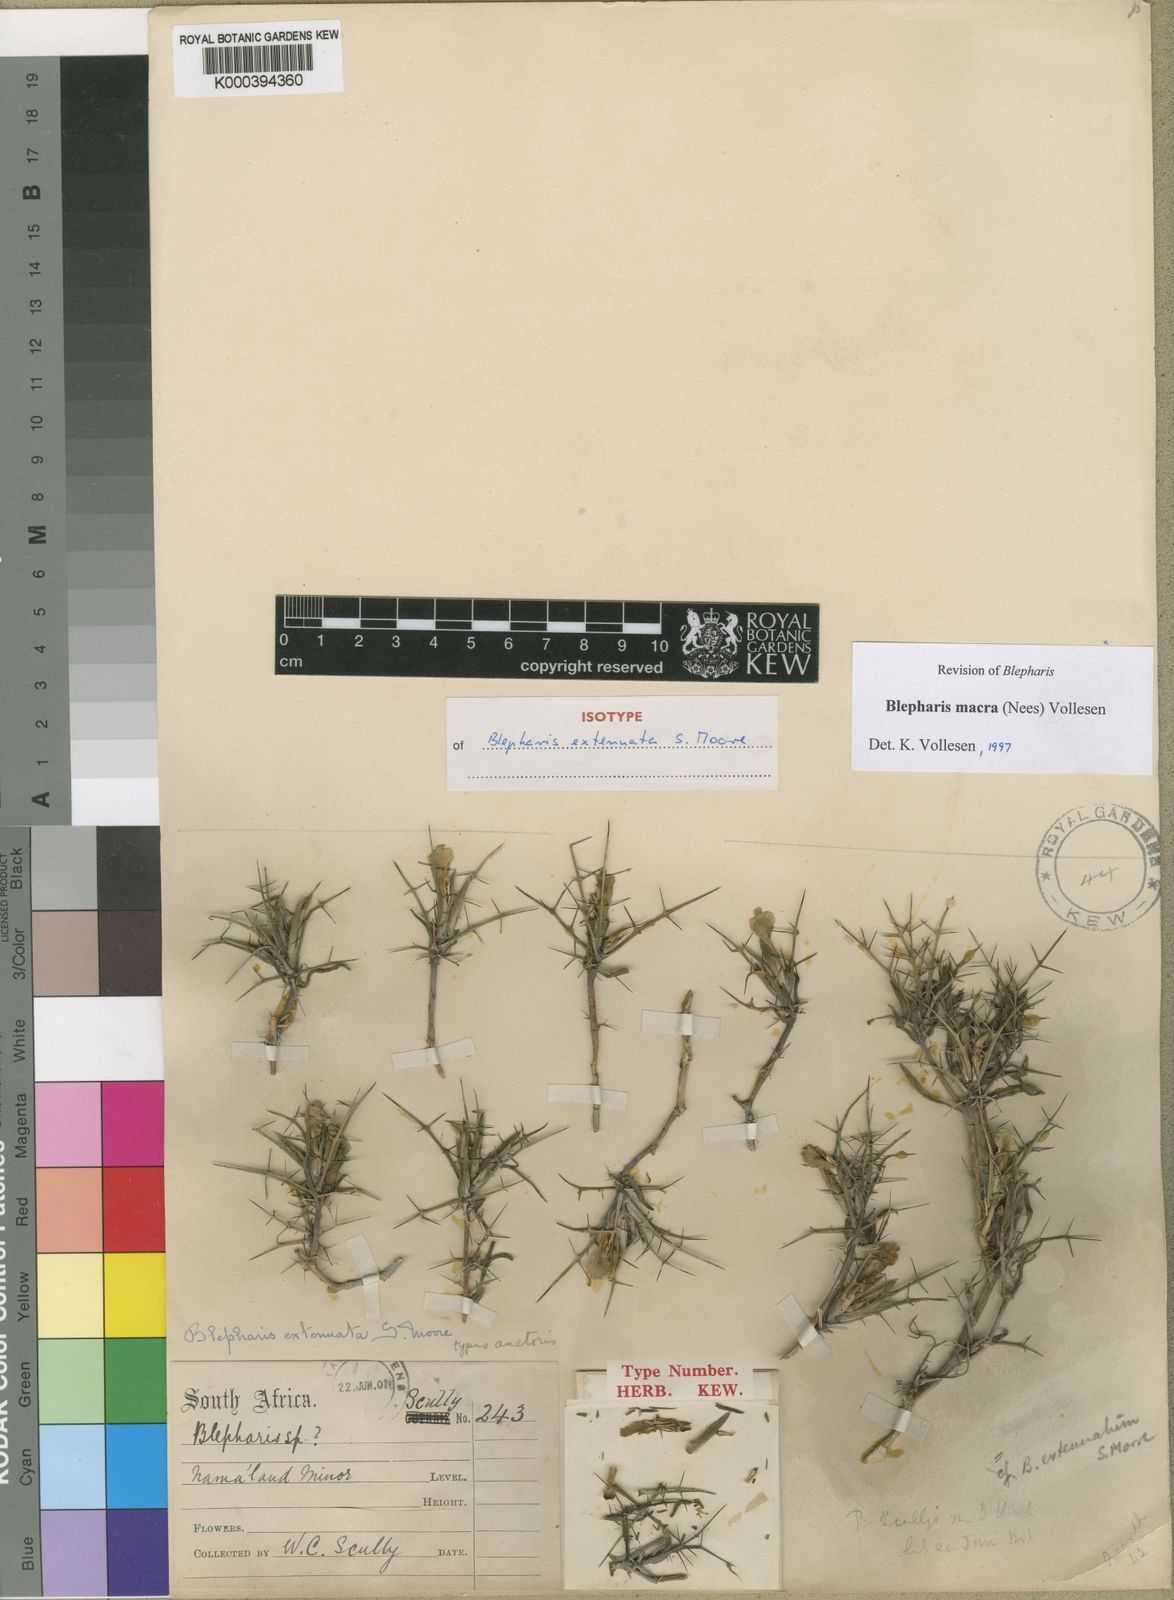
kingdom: Plantae
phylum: Tracheophyta
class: Magnoliopsida
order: Lamiales
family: Acanthaceae
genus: Blepharis
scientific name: Blepharis macra
